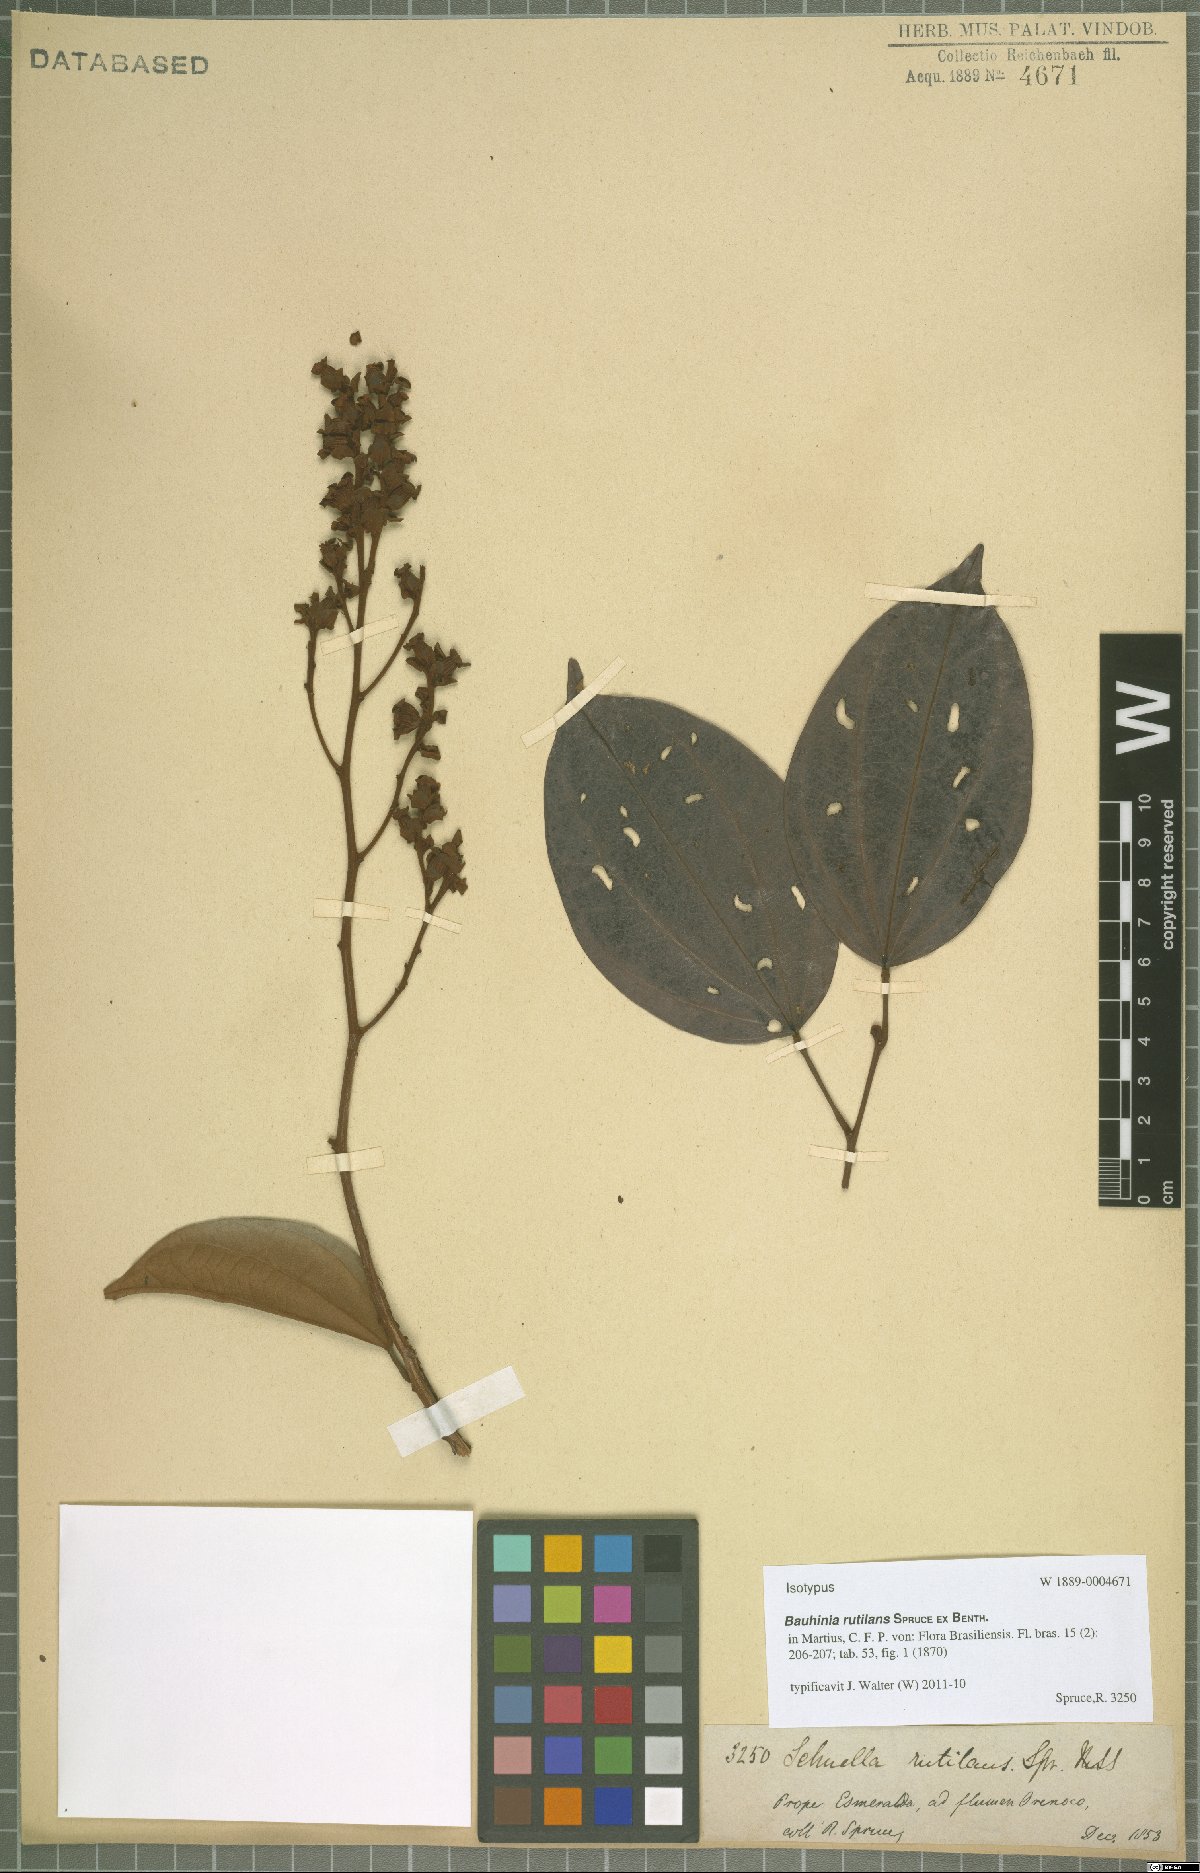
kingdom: Plantae
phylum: Tracheophyta
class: Magnoliopsida
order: Fabales
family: Fabaceae
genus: Schnella
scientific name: Schnella rutilans
